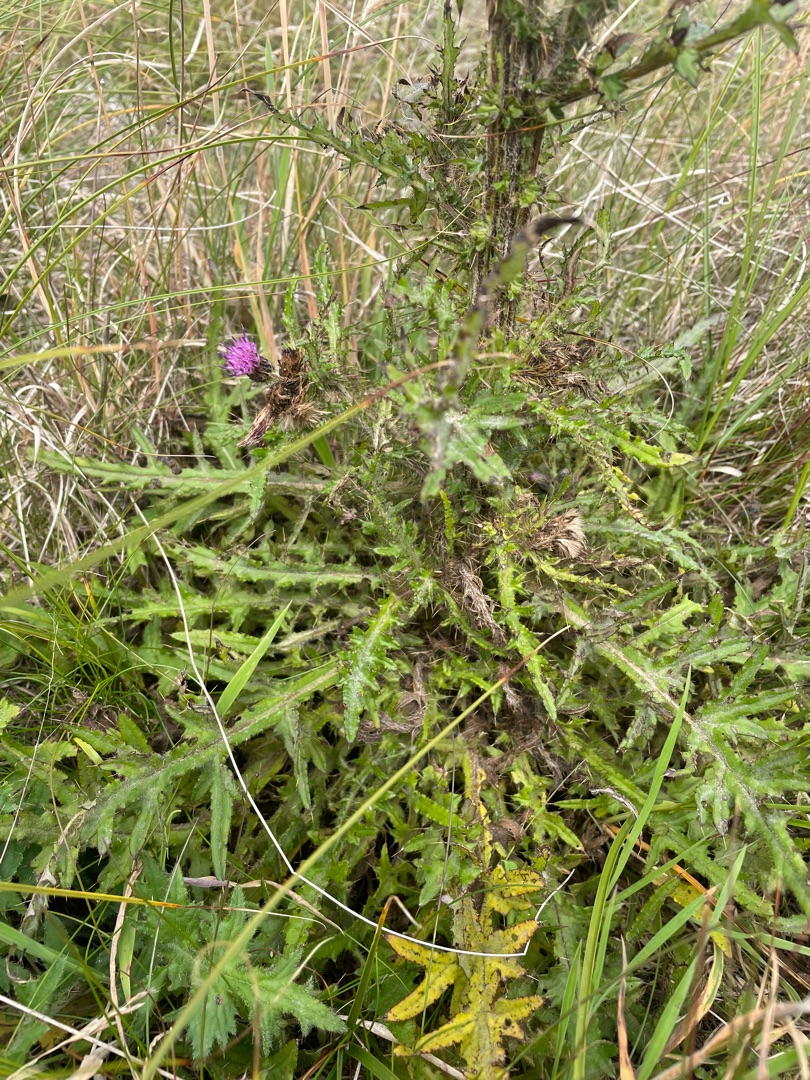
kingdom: Plantae
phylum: Tracheophyta
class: Magnoliopsida
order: Asterales
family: Asteraceae
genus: Cirsium
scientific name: Cirsium palustre
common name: Kær-tidsel
